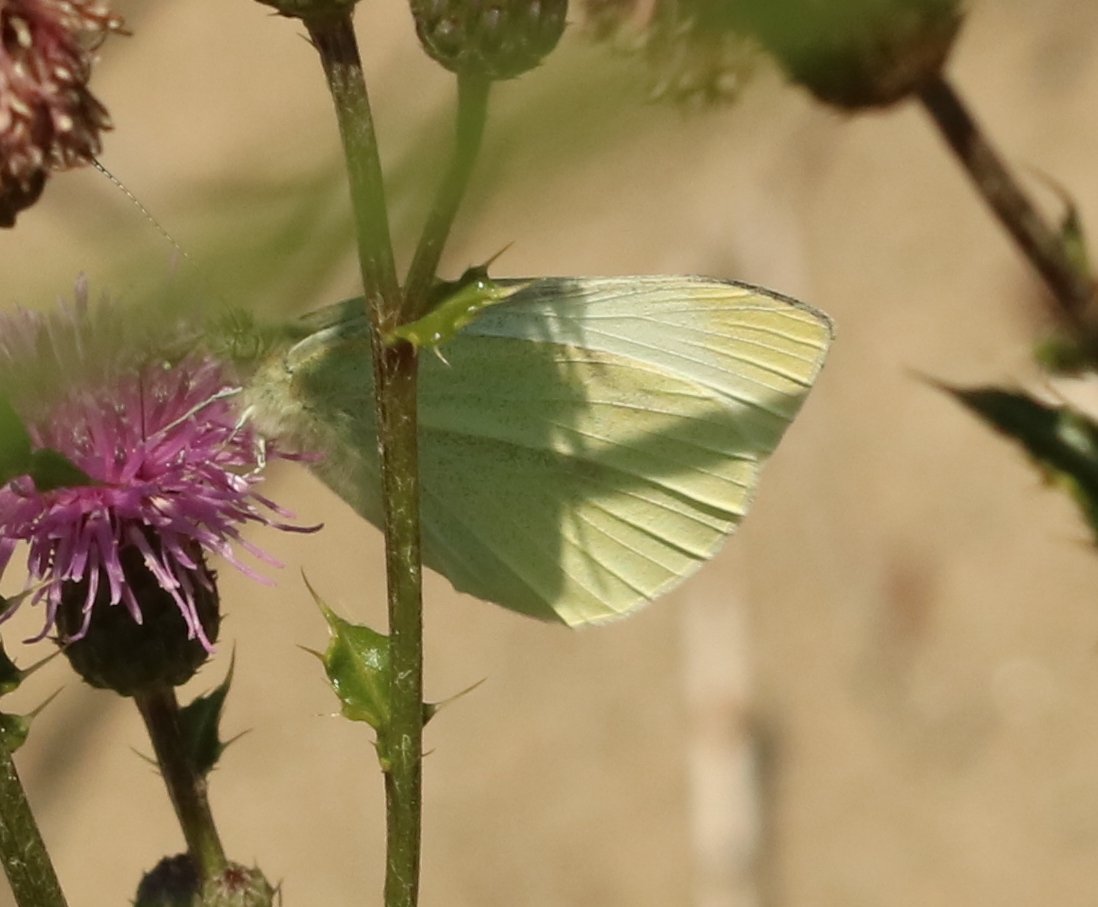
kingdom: Animalia
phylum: Arthropoda
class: Insecta
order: Lepidoptera
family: Pieridae
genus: Pieris
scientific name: Pieris rapae
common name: Cabbage White
